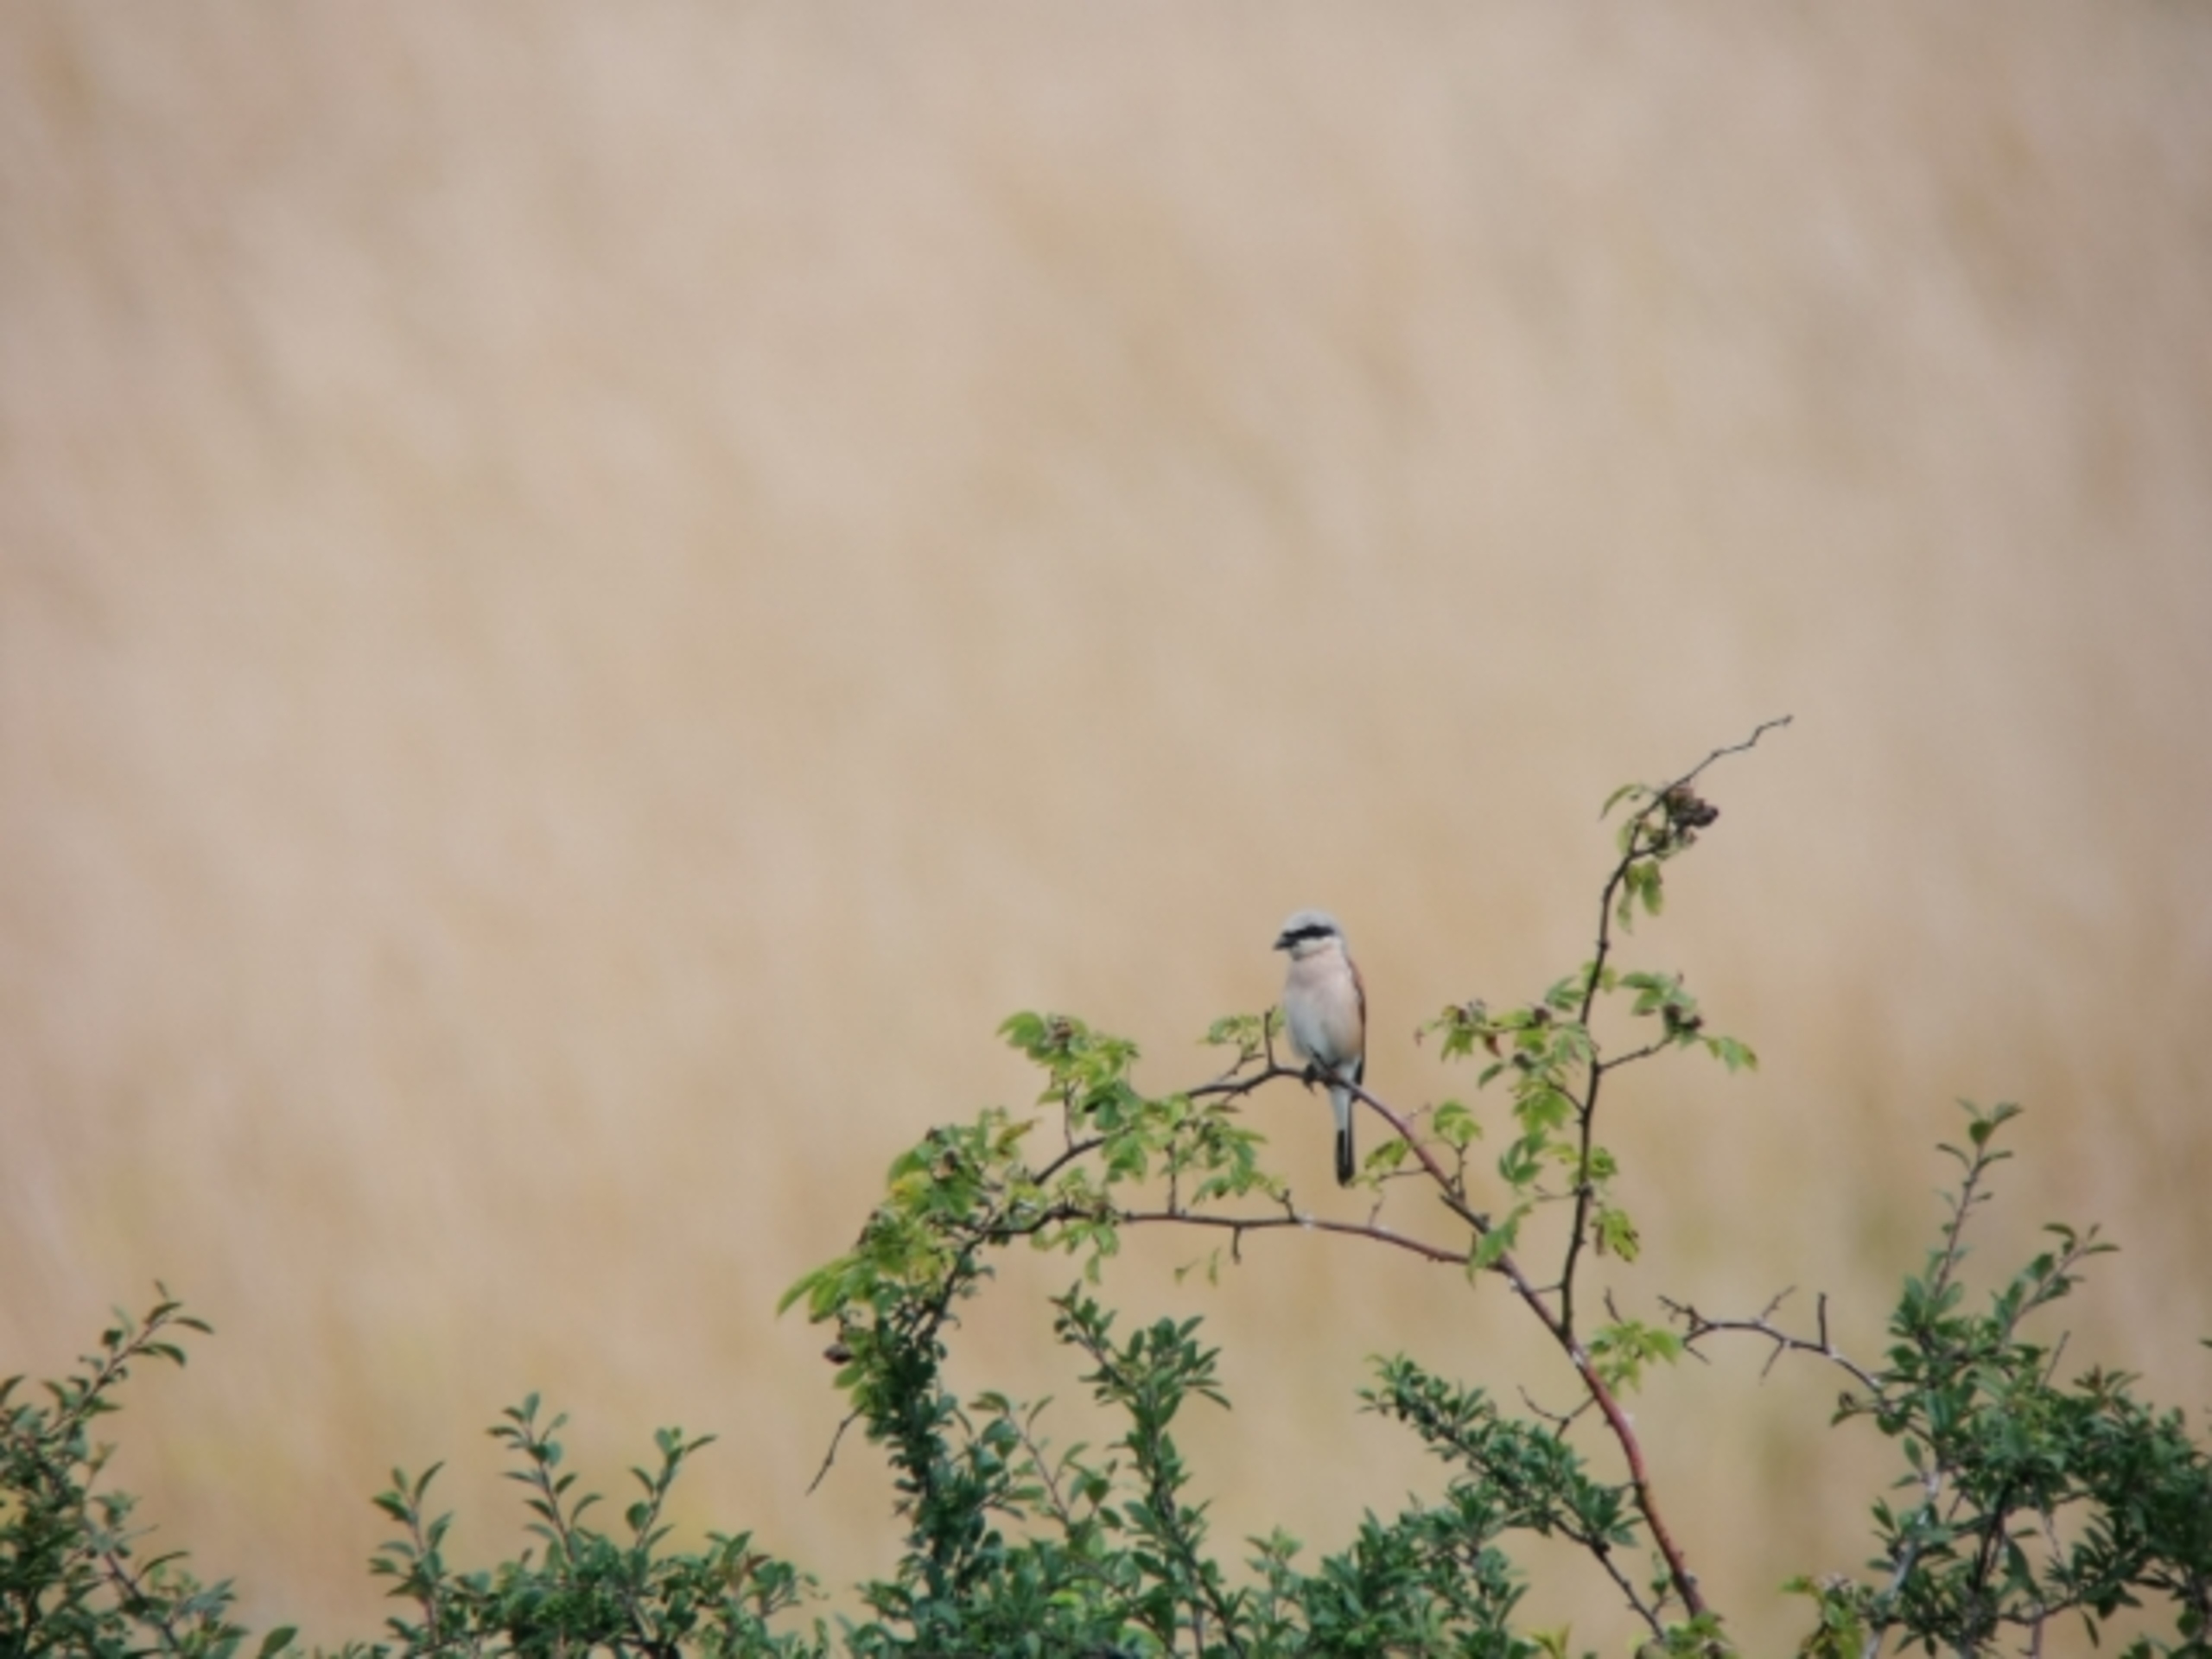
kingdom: Animalia
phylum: Chordata
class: Aves
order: Passeriformes
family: Laniidae
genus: Lanius
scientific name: Lanius collurio
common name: Rødrygget tornskade
